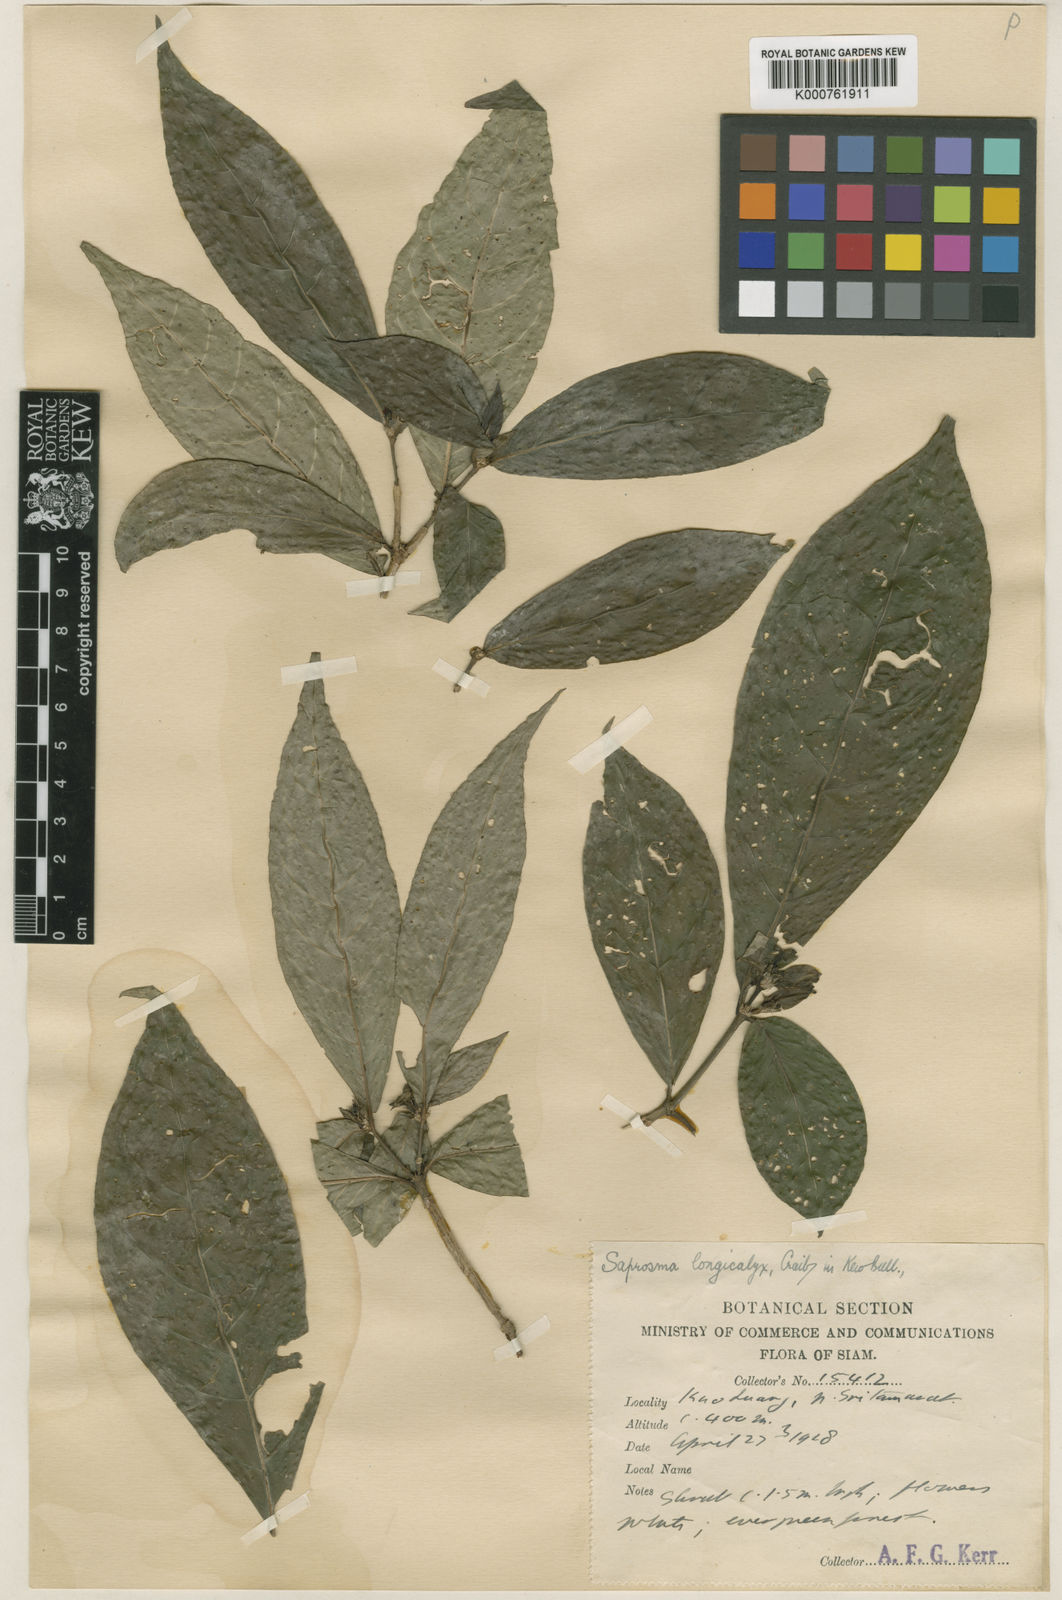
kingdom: Plantae
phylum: Tracheophyta
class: Magnoliopsida
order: Gentianales
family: Rubiaceae
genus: Saprosma
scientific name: Saprosma longicalyx
